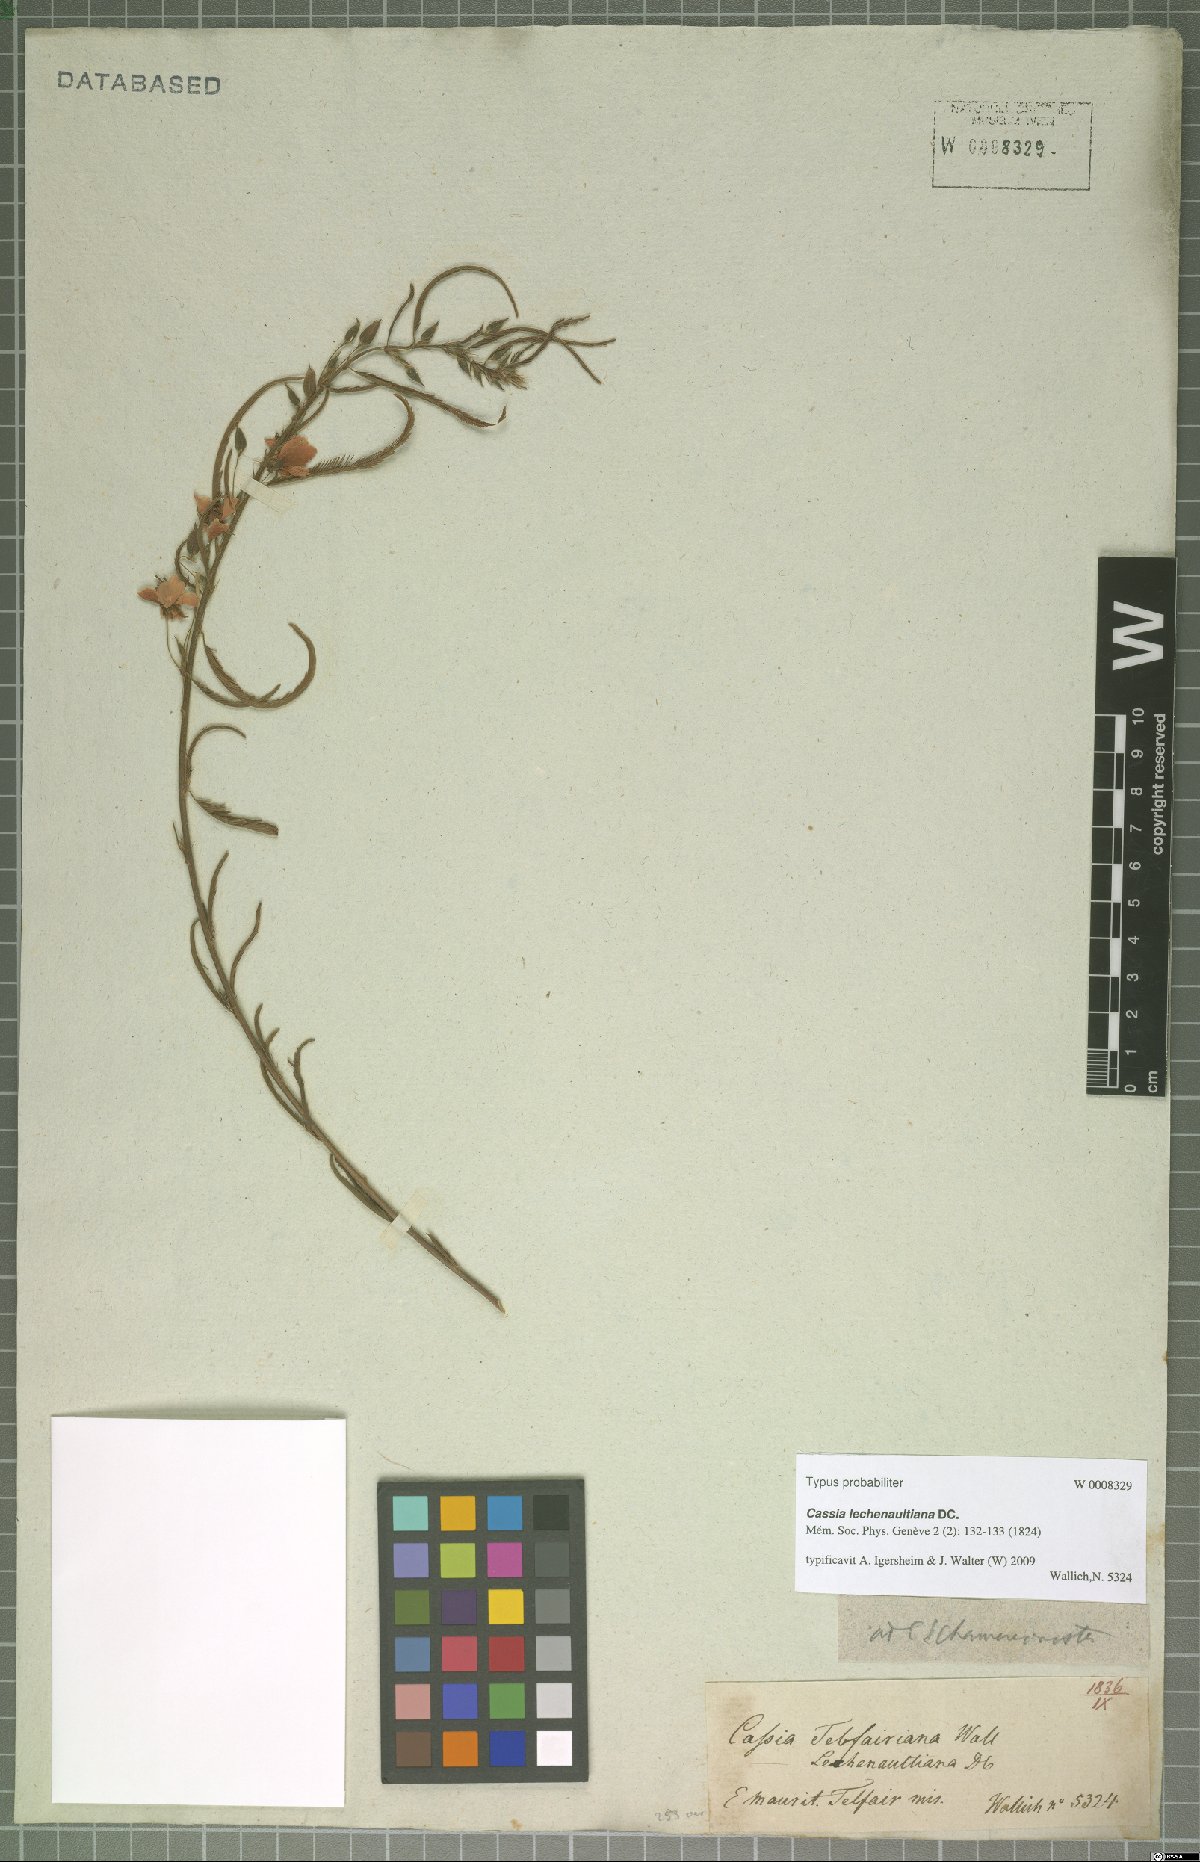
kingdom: Plantae
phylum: Tracheophyta
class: Magnoliopsida
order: Fabales
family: Fabaceae
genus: Chamaecrista
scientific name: Chamaecrista nictitans
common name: Sensitive cassia
